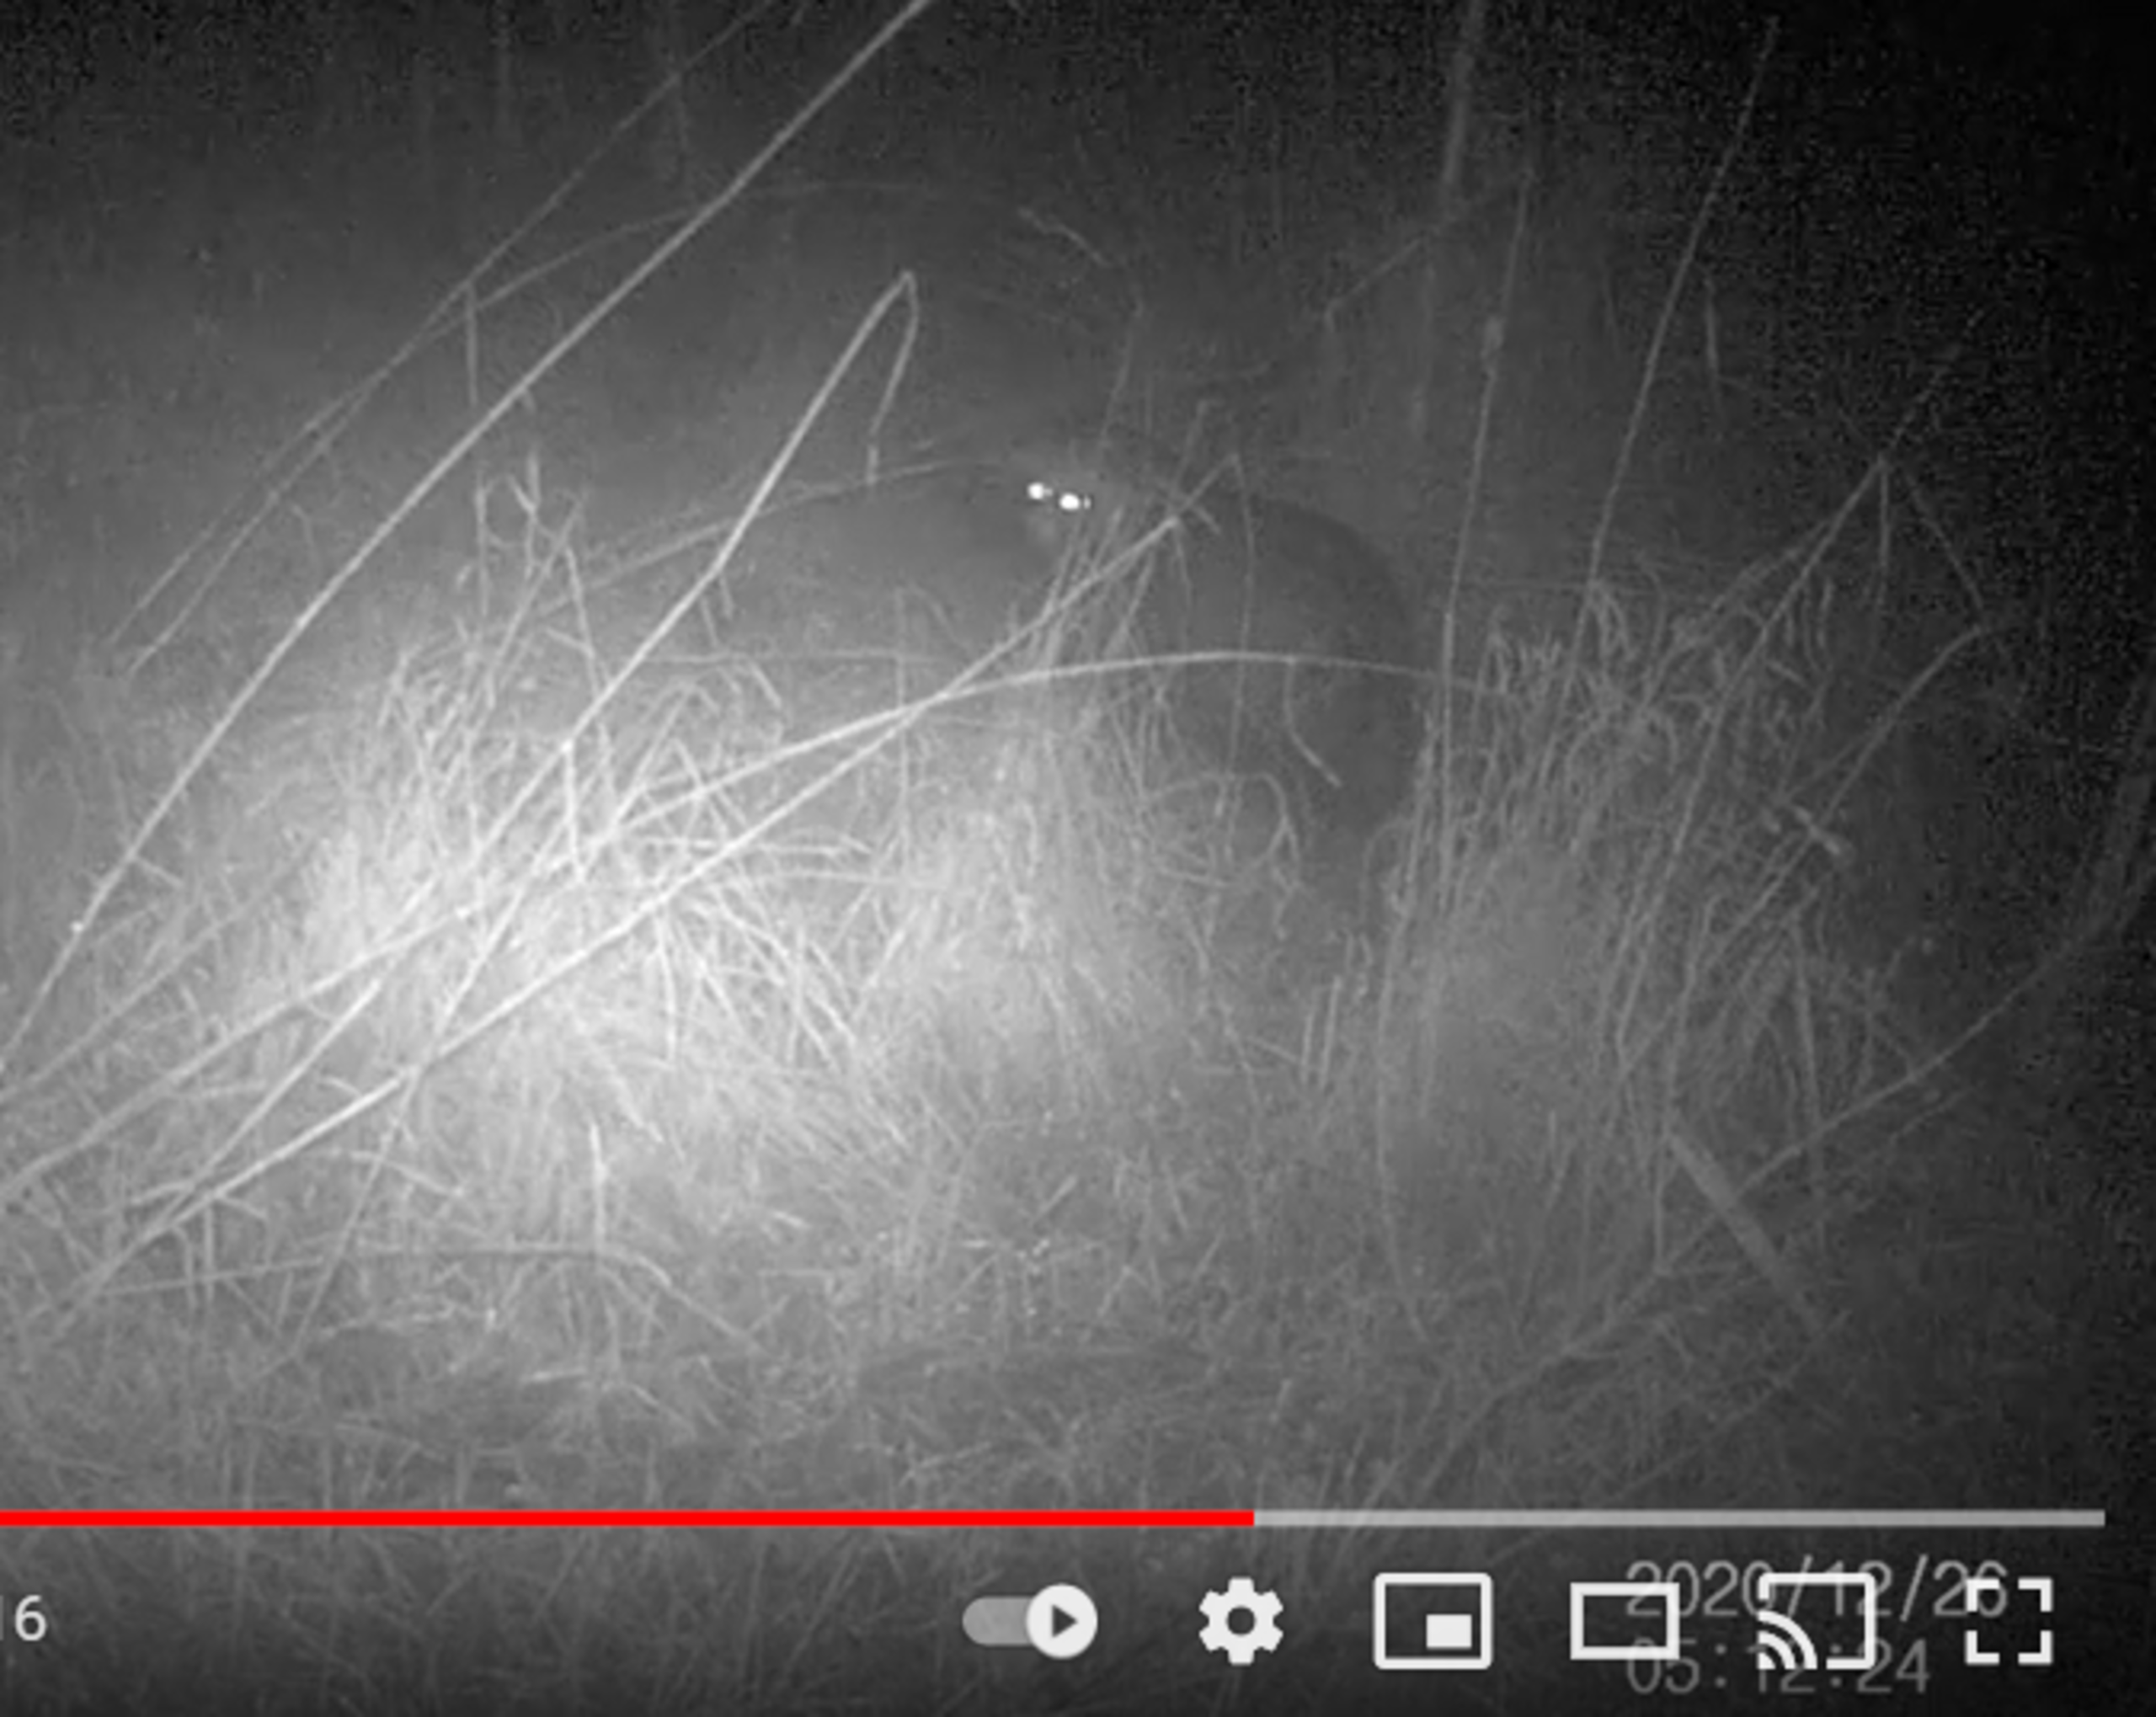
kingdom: Animalia
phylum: Chordata
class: Mammalia
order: Carnivora
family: Canidae
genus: Nyctereutes
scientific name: Nyctereutes procyonoides
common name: Mårhund
